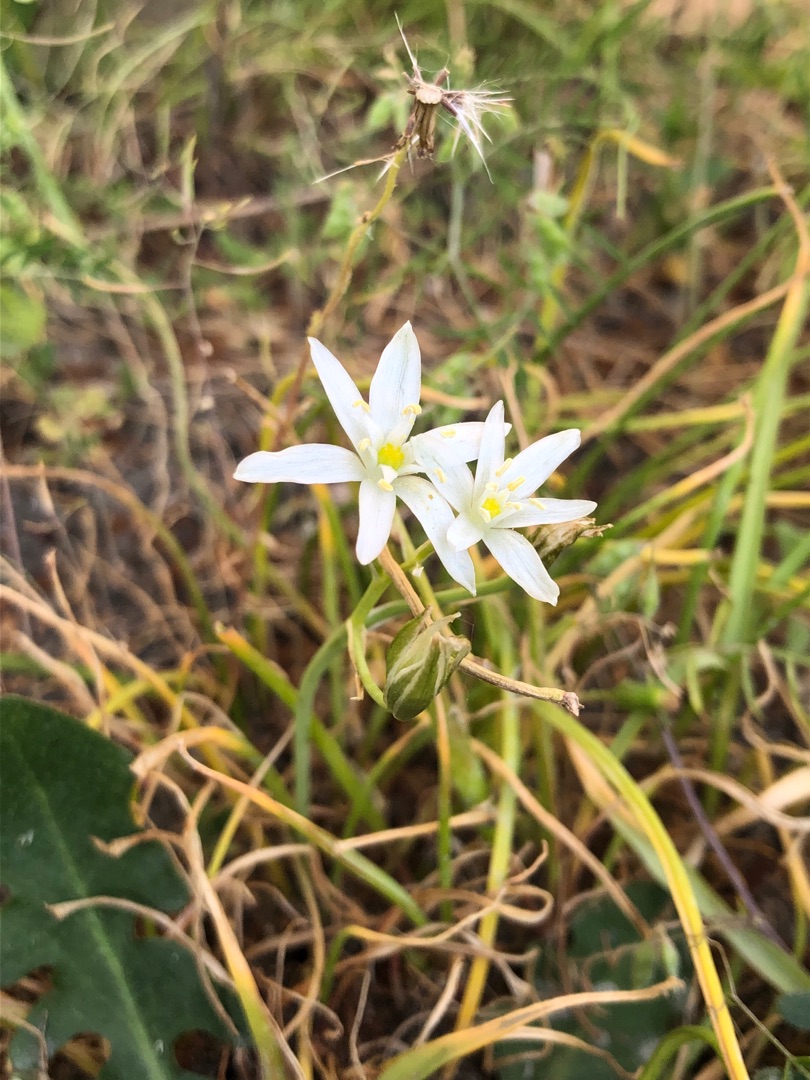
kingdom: Plantae
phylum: Tracheophyta
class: Liliopsida
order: Asparagales
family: Asparagaceae
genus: Ornithogalum
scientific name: Ornithogalum umbellatum
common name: Kost-fuglemælk
